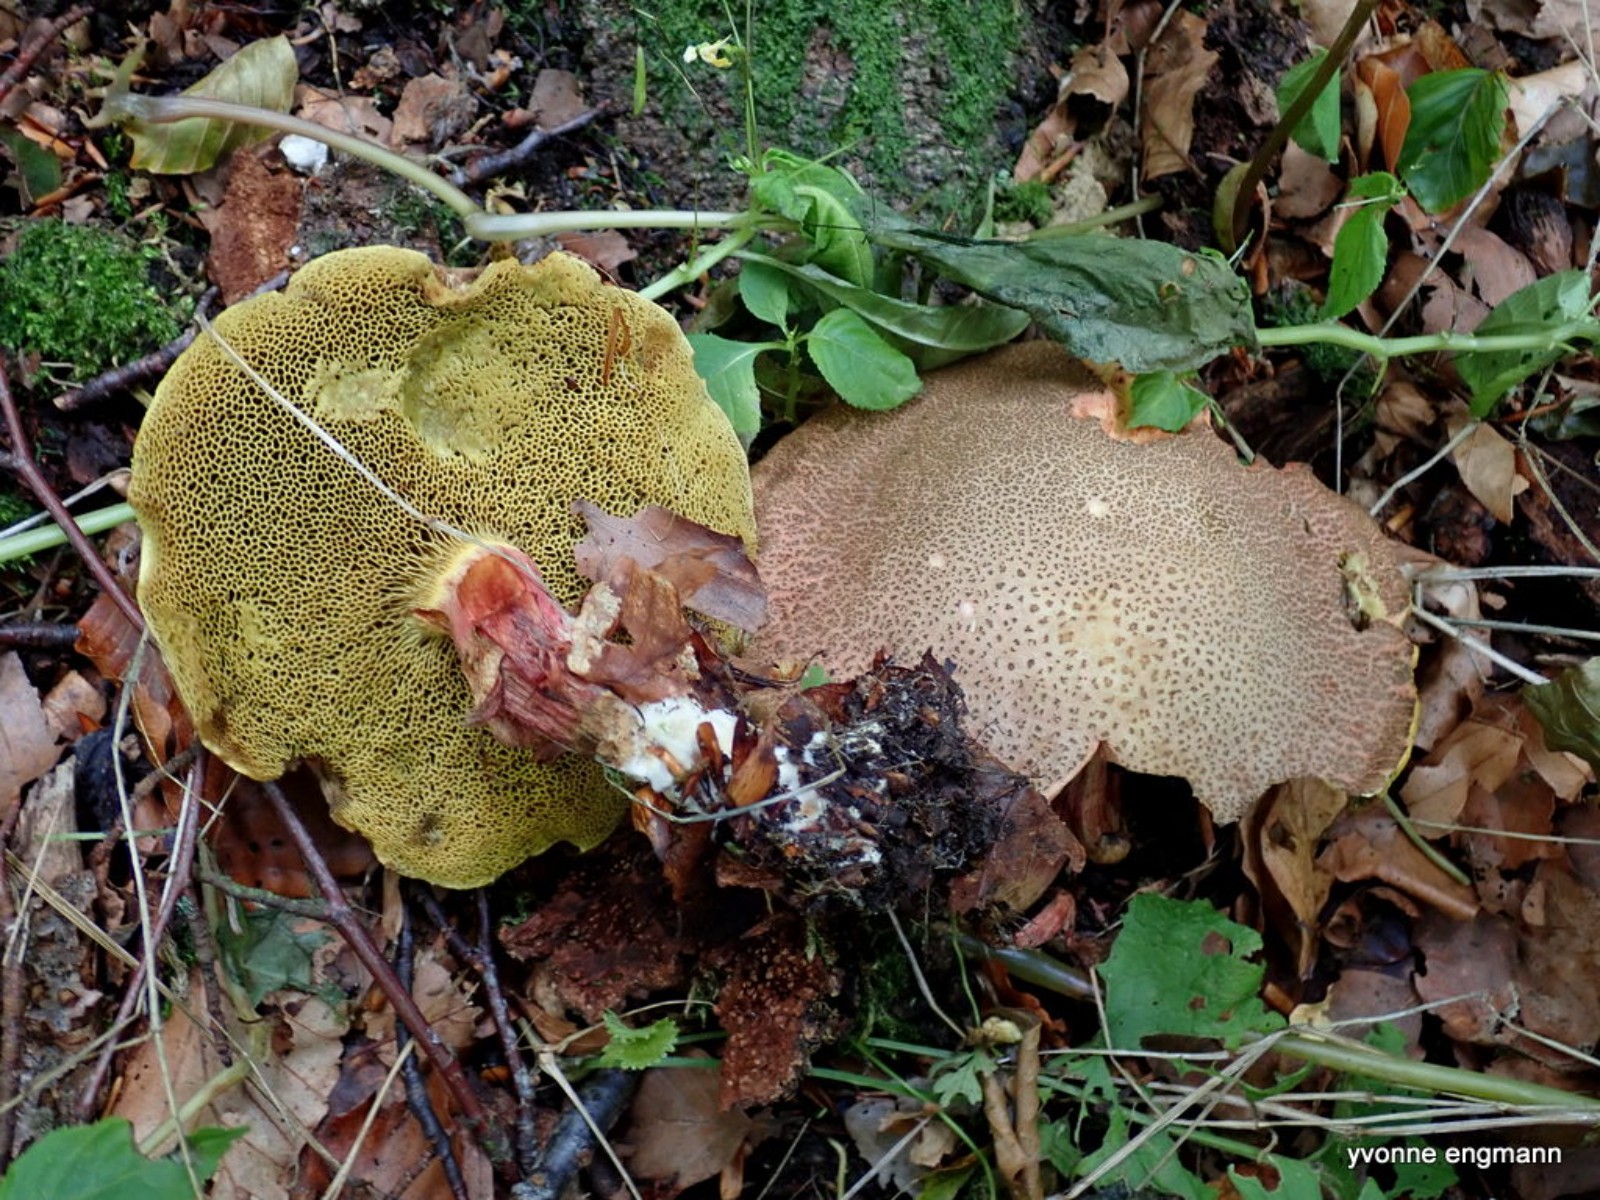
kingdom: Fungi
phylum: Basidiomycota
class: Agaricomycetes
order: Boletales
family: Boletaceae
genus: Xerocomellus
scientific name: Xerocomellus pruinatus
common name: dugget rørhat
